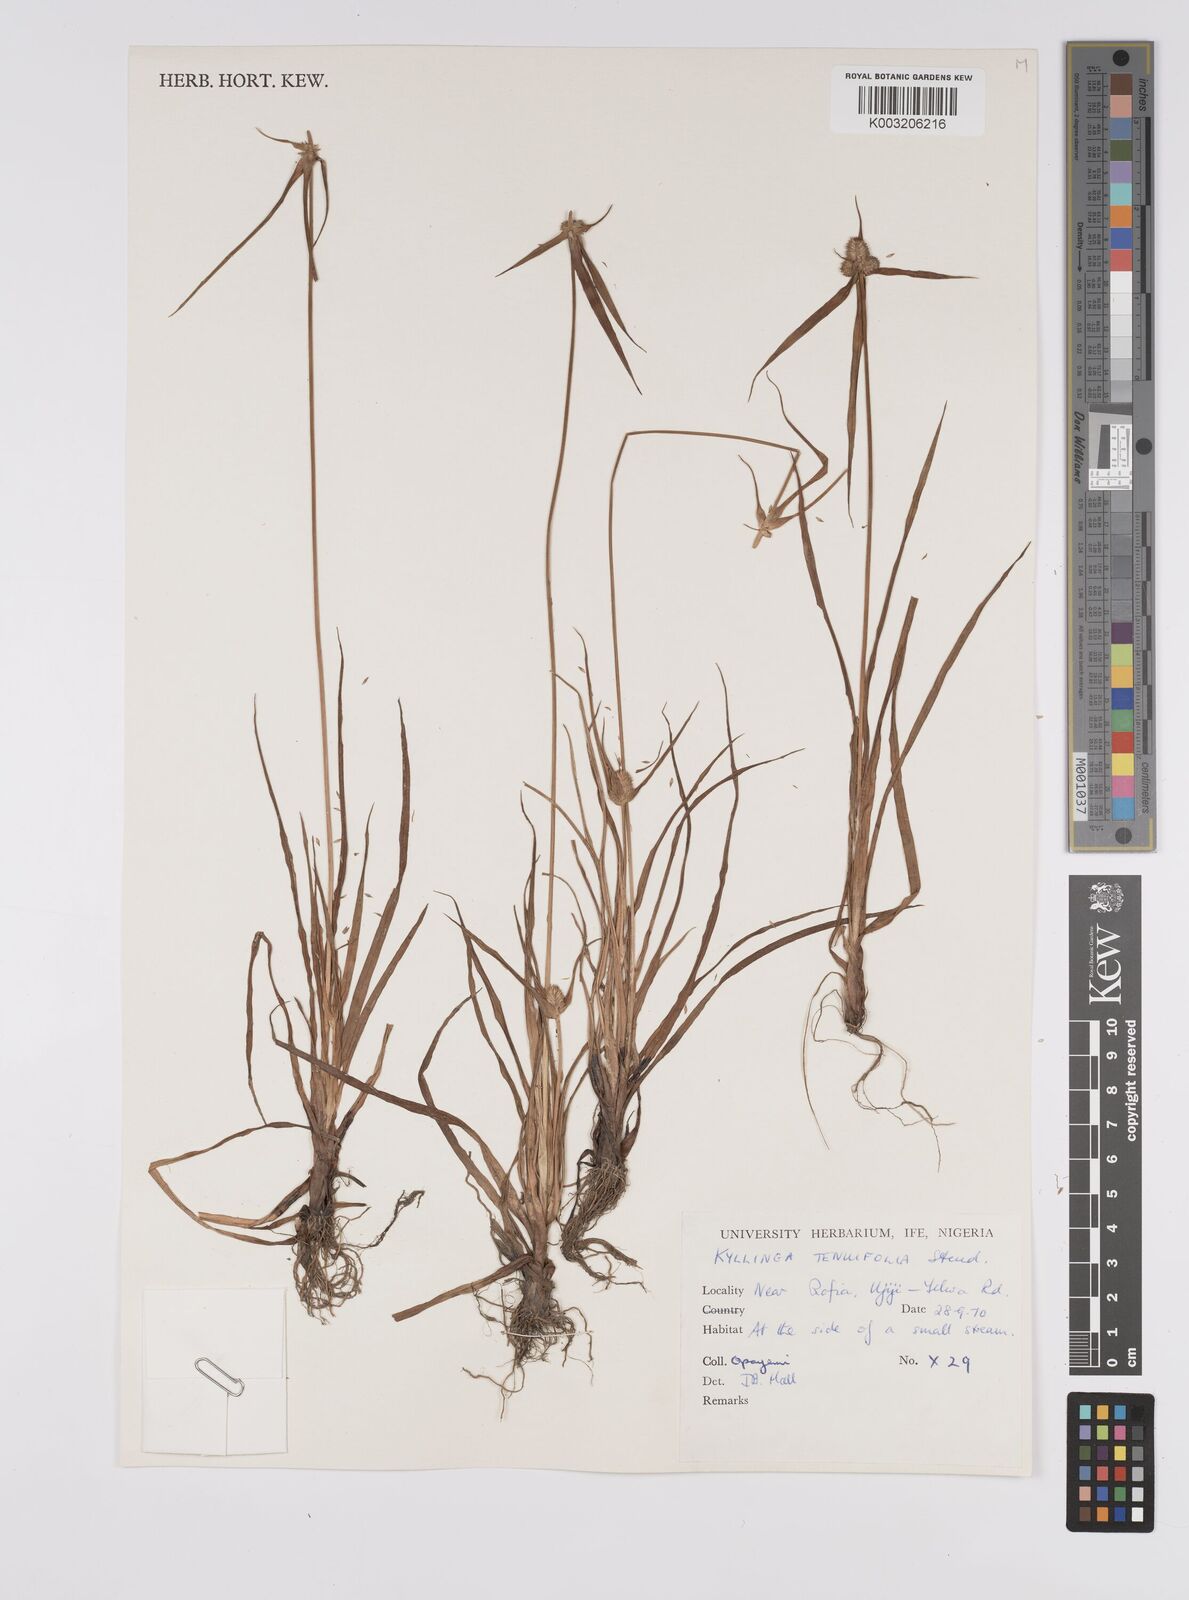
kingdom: Plantae
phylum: Tracheophyta
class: Liliopsida
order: Poales
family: Cyperaceae
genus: Cyperus
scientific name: Cyperus
